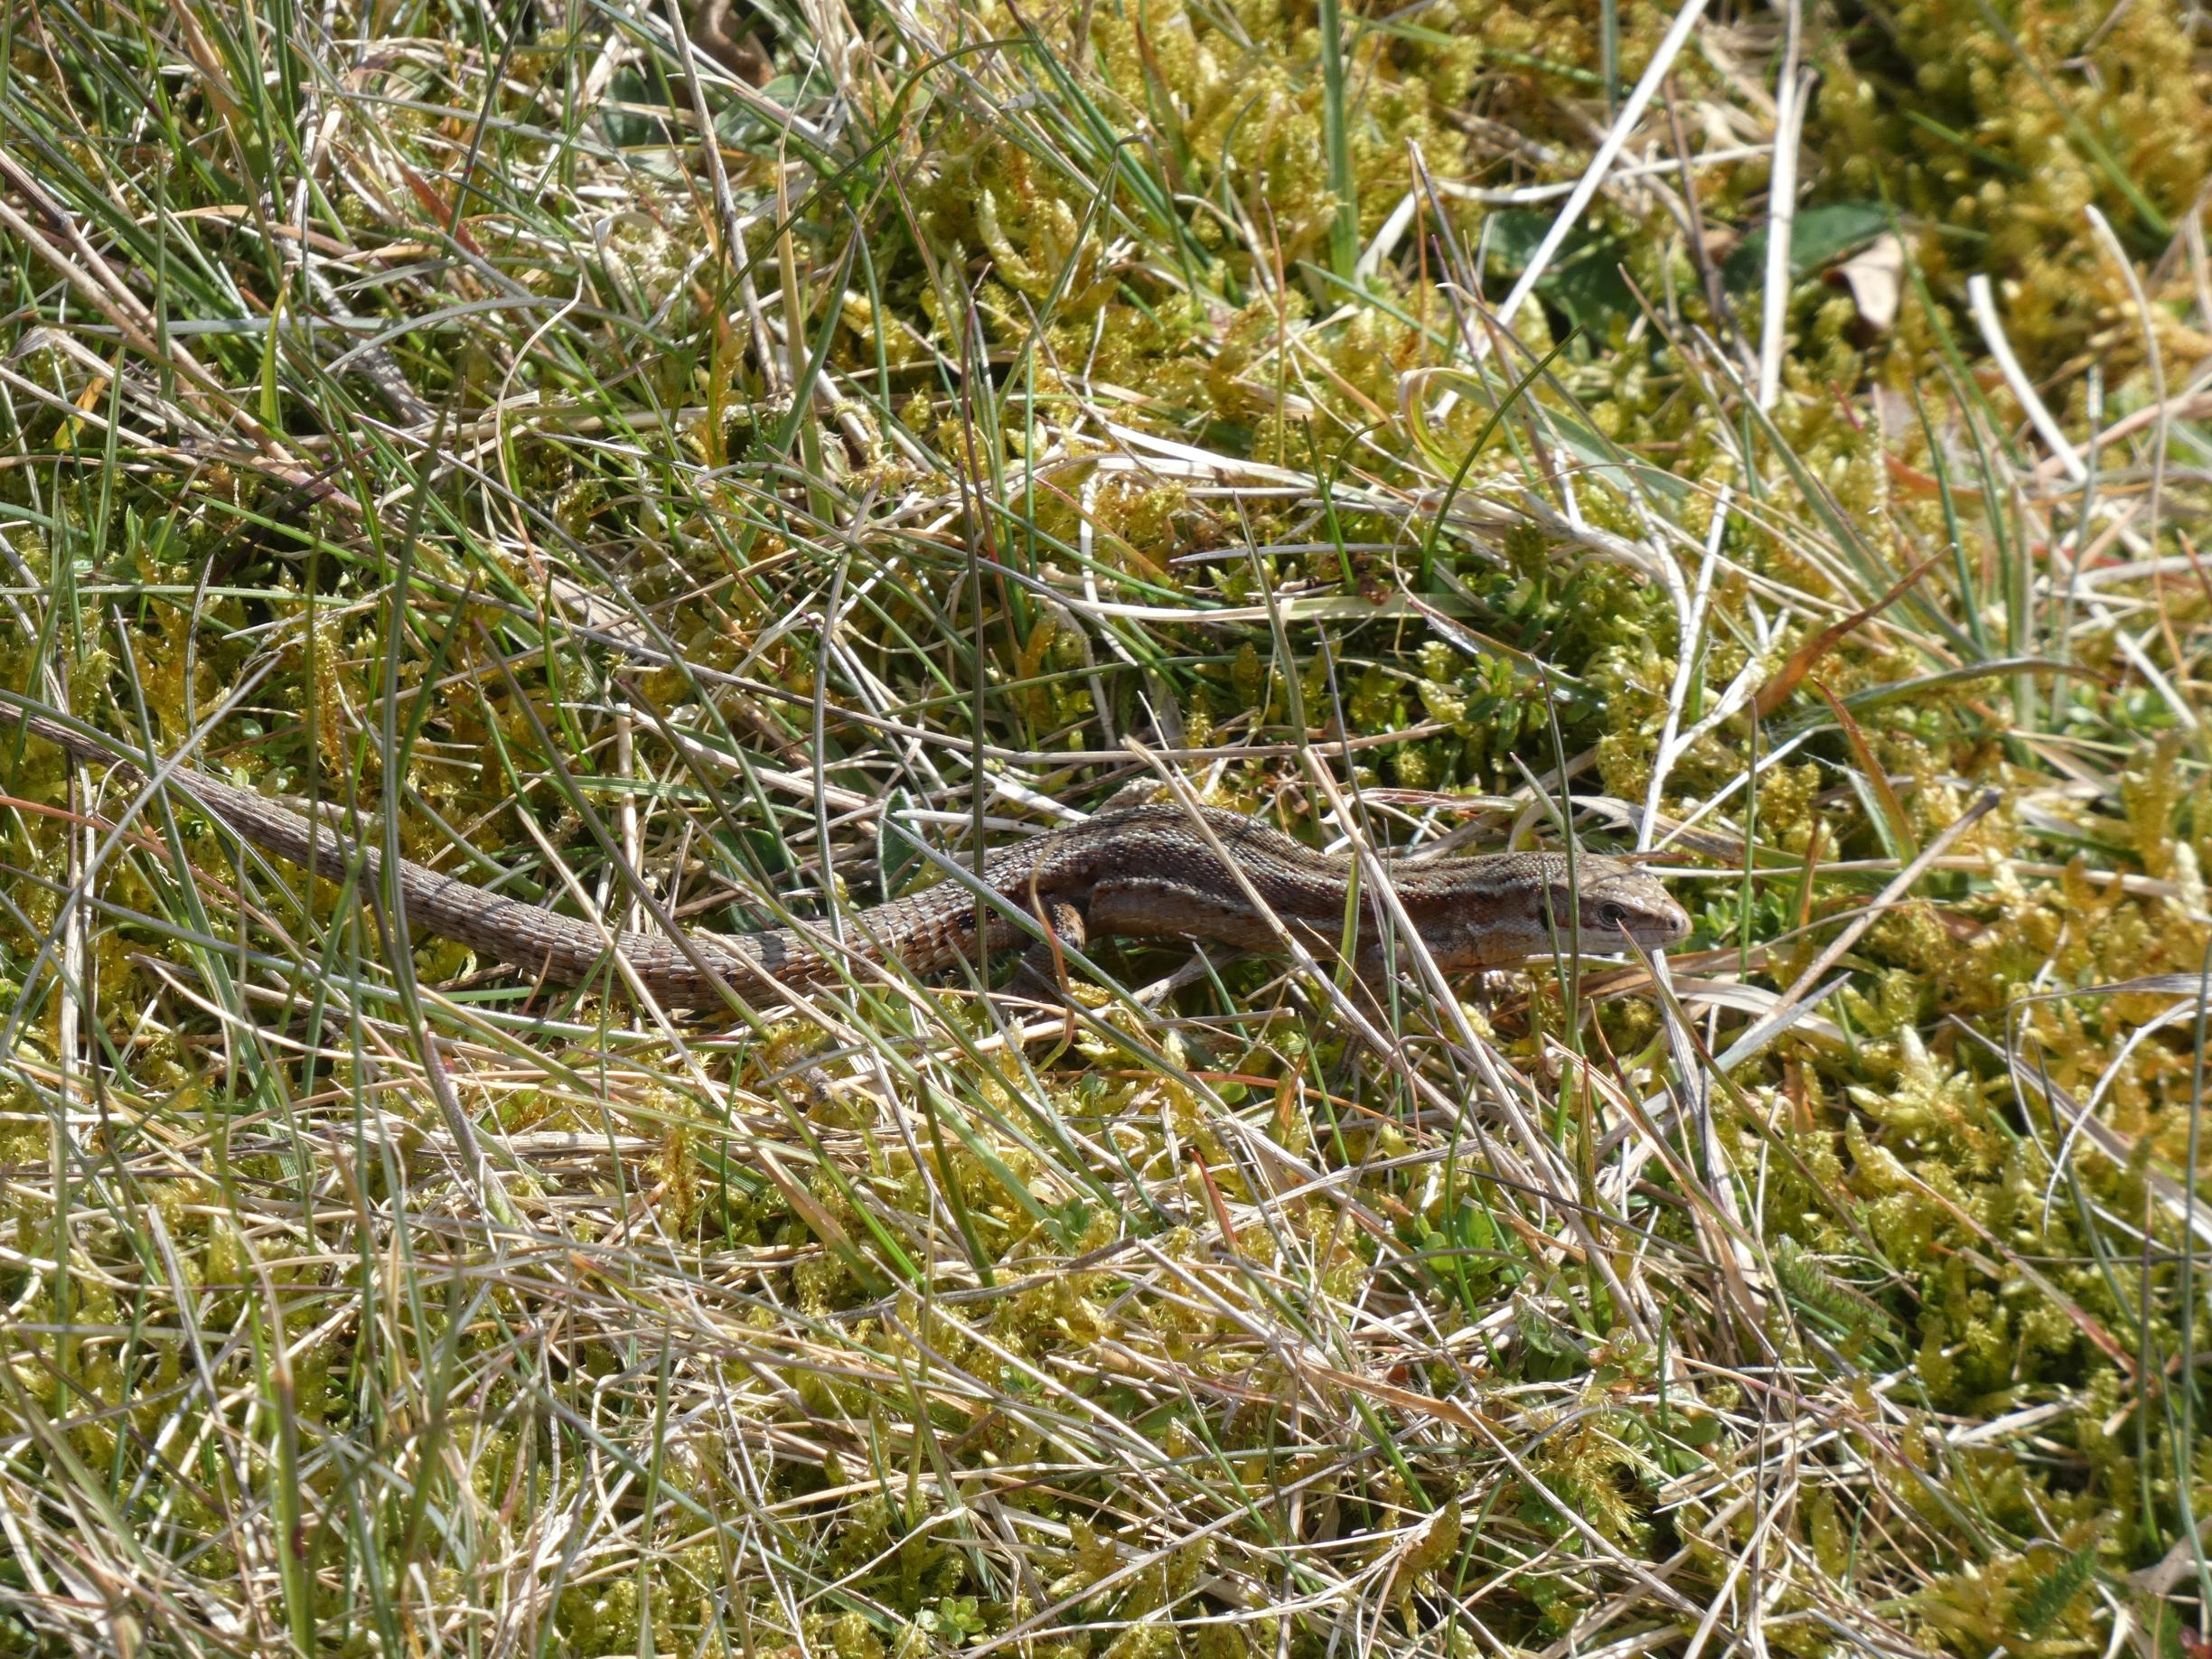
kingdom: Animalia
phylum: Chordata
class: Squamata
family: Lacertidae
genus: Zootoca
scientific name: Zootoca vivipara
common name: Skovfirben
